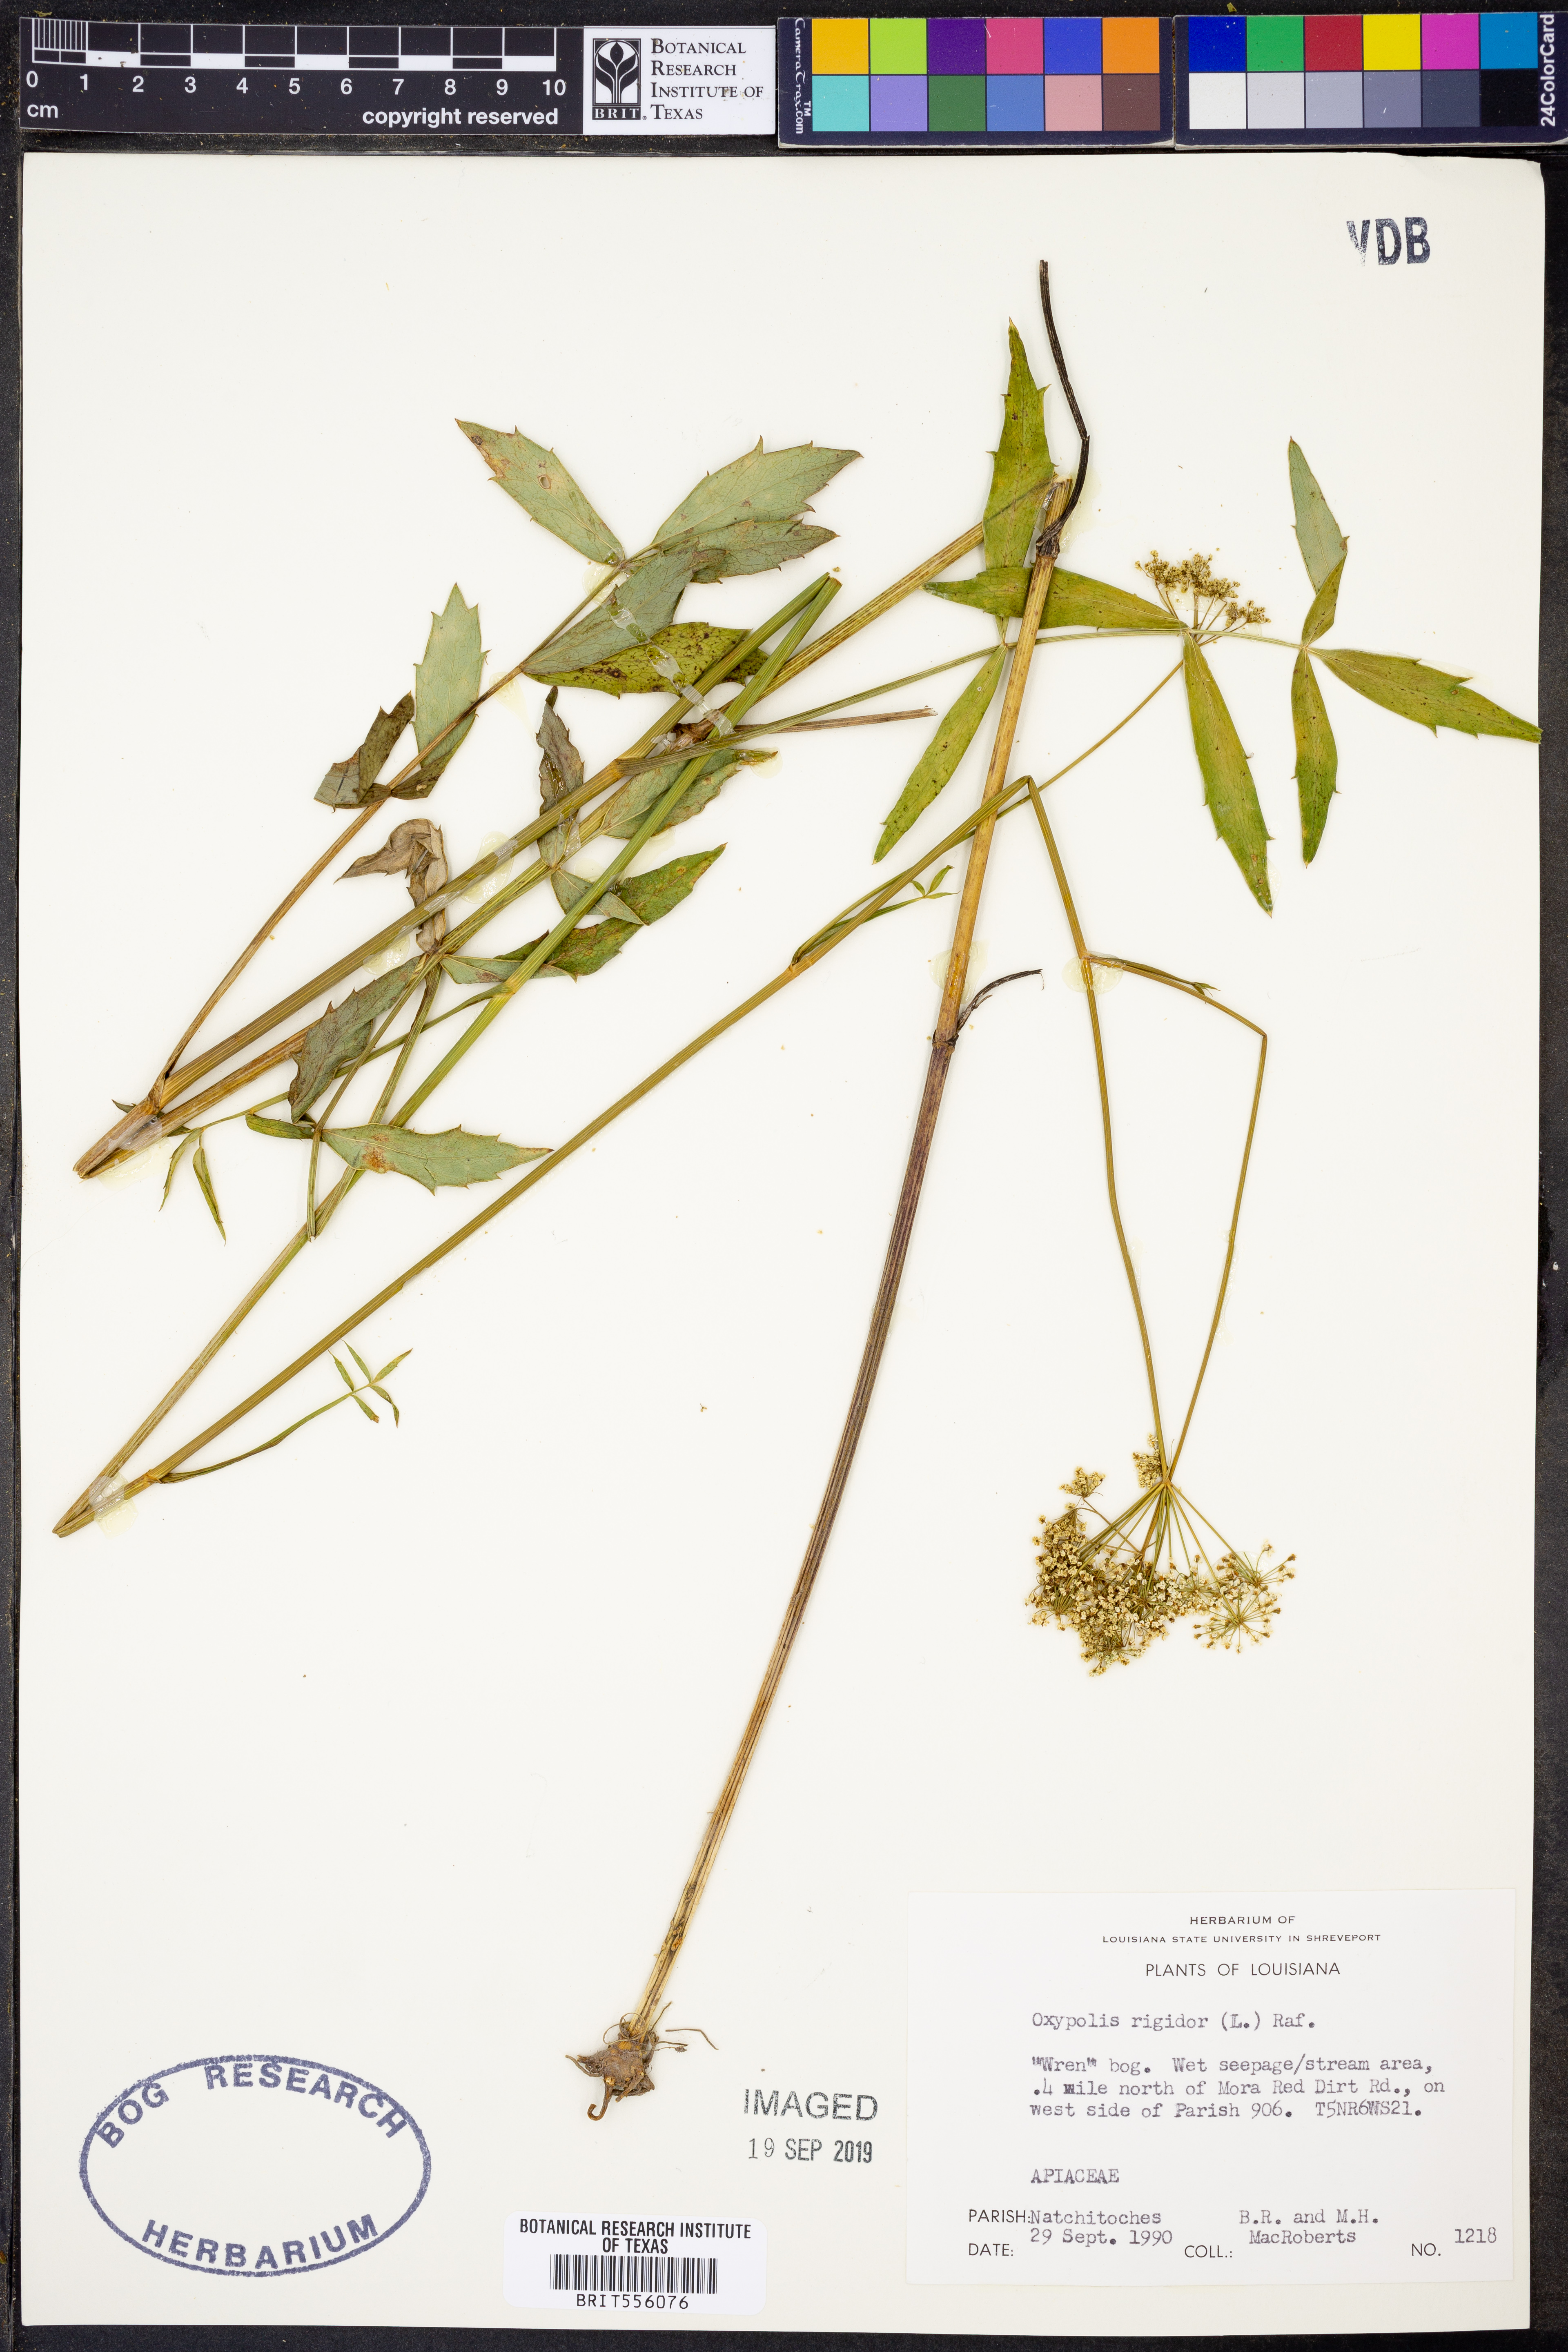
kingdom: Plantae
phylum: Tracheophyta
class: Magnoliopsida
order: Apiales
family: Apiaceae
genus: Oxypolis
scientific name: Oxypolis rigidior
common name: Cowbane
